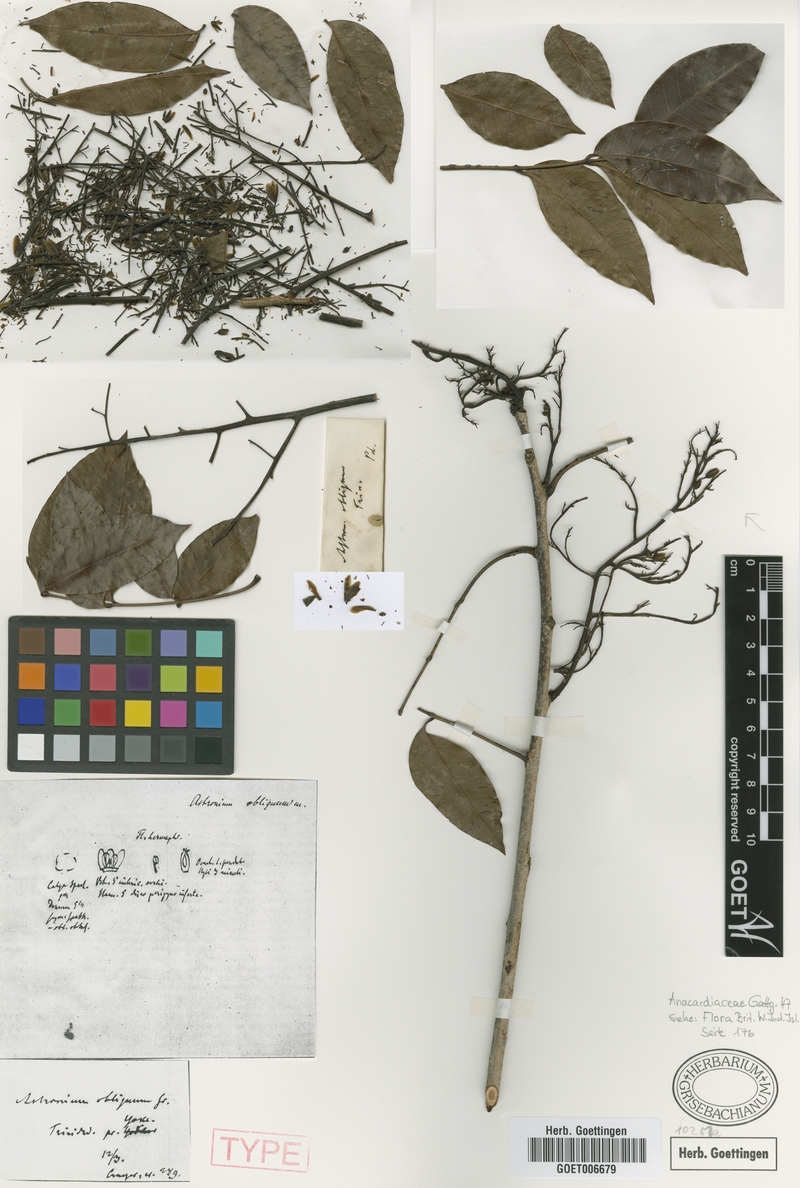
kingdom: Plantae
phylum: Tracheophyta
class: Magnoliopsida
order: Sapindales
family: Anacardiaceae
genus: Astronium
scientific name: Astronium obliquum
